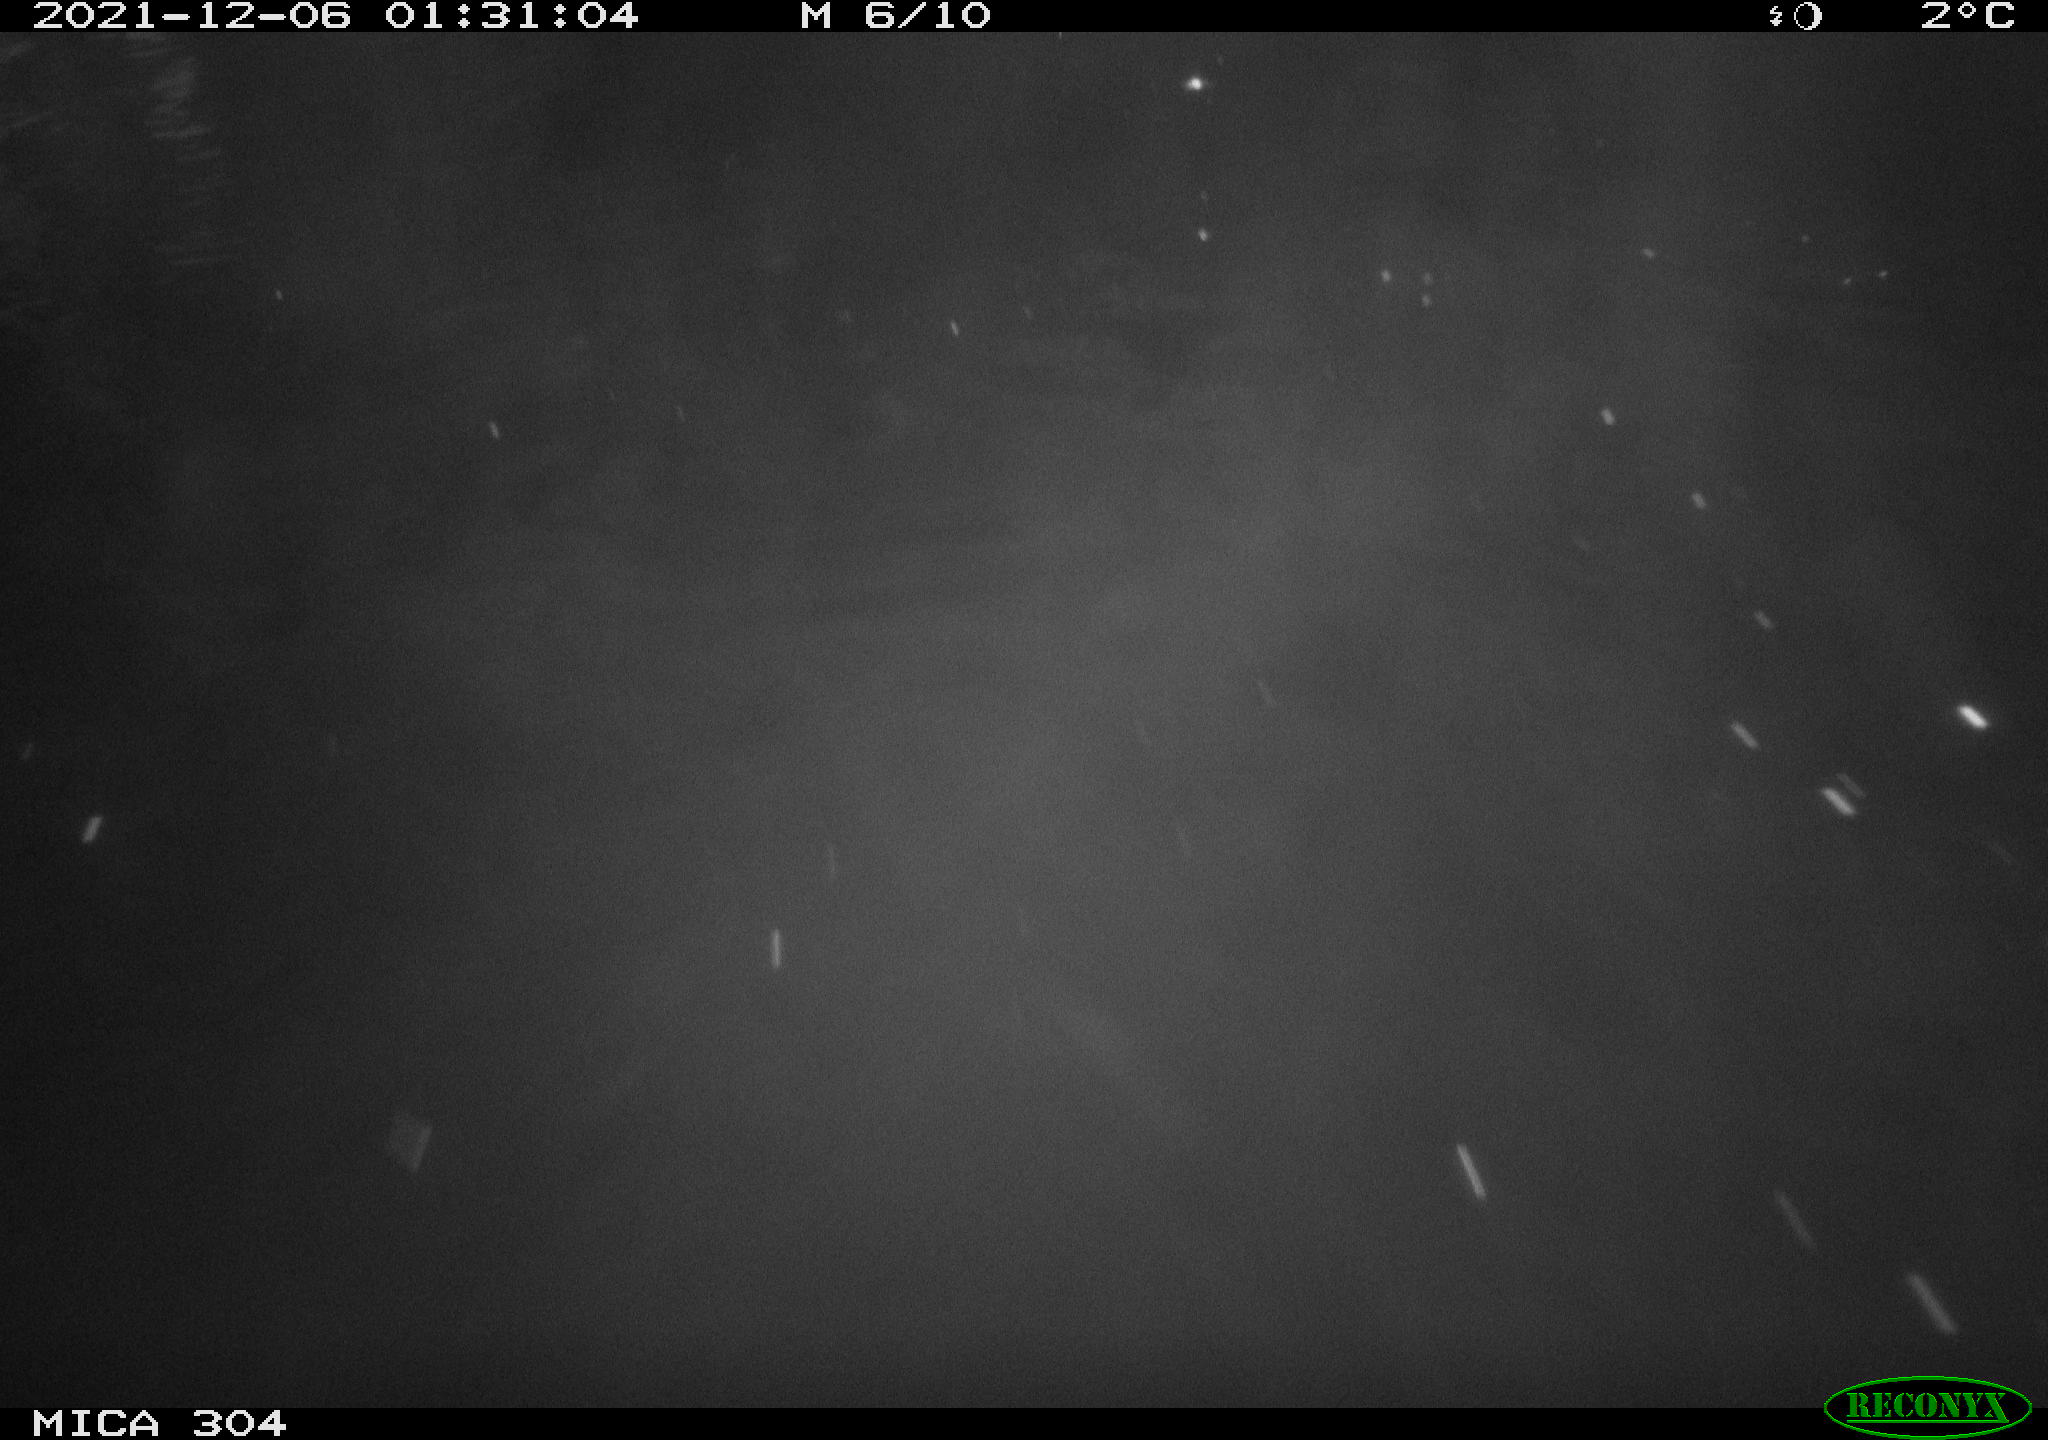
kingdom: Animalia
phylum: Chordata
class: Mammalia
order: Rodentia
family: Cricetidae
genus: Ondatra
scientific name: Ondatra zibethicus
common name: Muskrat
